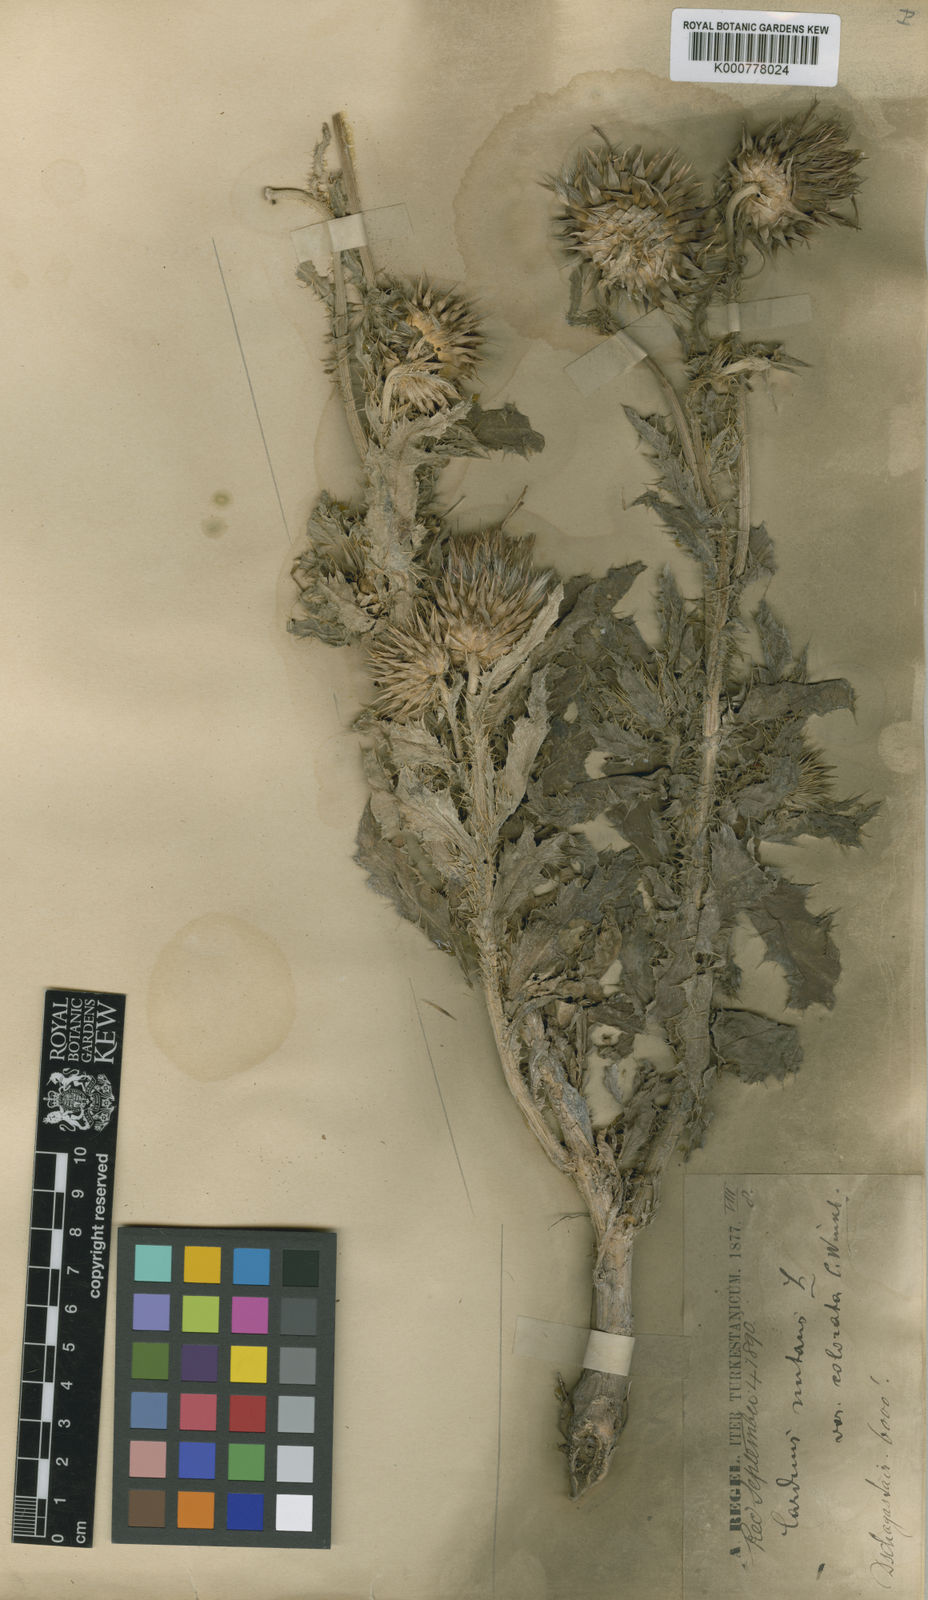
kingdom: Plantae
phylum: Tracheophyta
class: Magnoliopsida
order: Asterales
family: Asteraceae
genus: Carduus
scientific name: Carduus nutans
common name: Musk thistle
